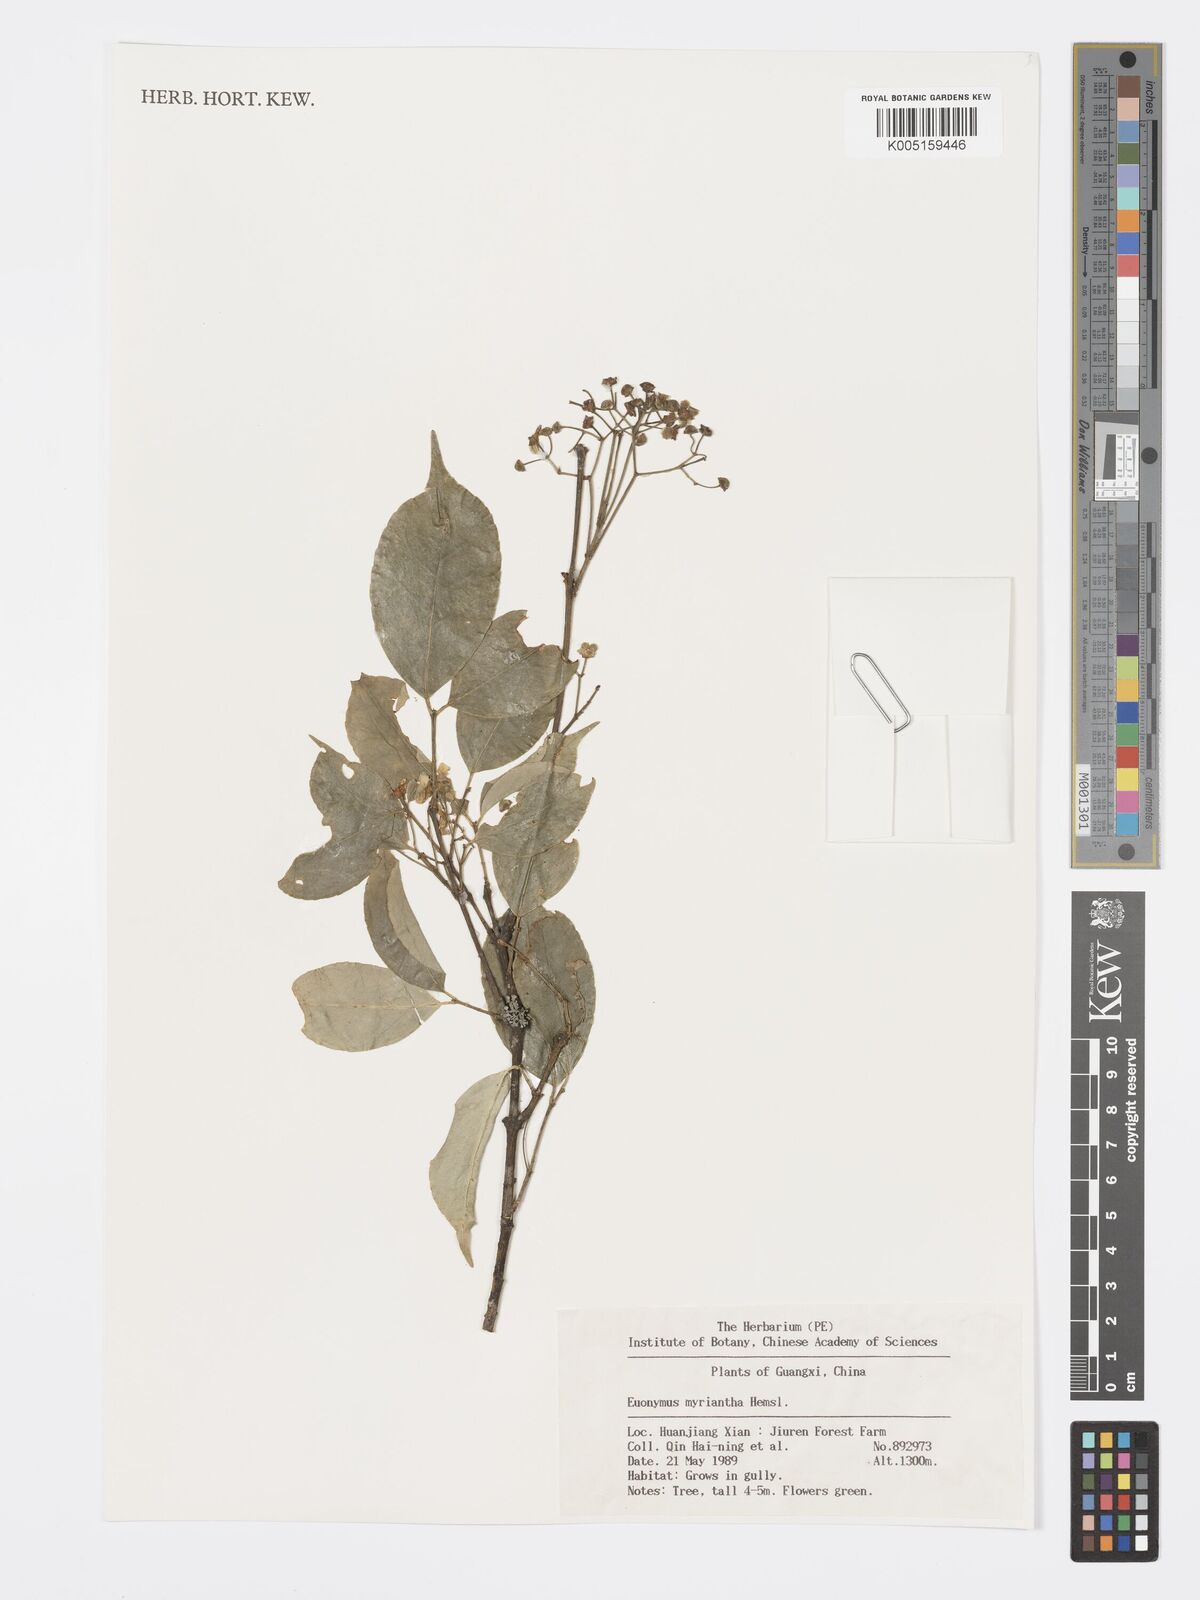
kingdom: Plantae
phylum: Tracheophyta
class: Magnoliopsida
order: Celastrales
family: Celastraceae
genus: Euonymus
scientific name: Euonymus myrianthus
